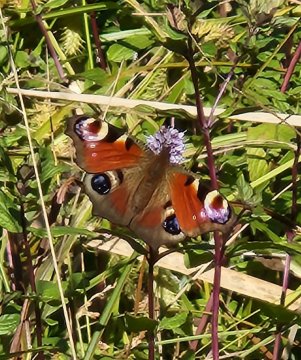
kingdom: Animalia
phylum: Arthropoda
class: Insecta
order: Lepidoptera
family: Nymphalidae
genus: Aglais
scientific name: Aglais io
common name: European Peacock
